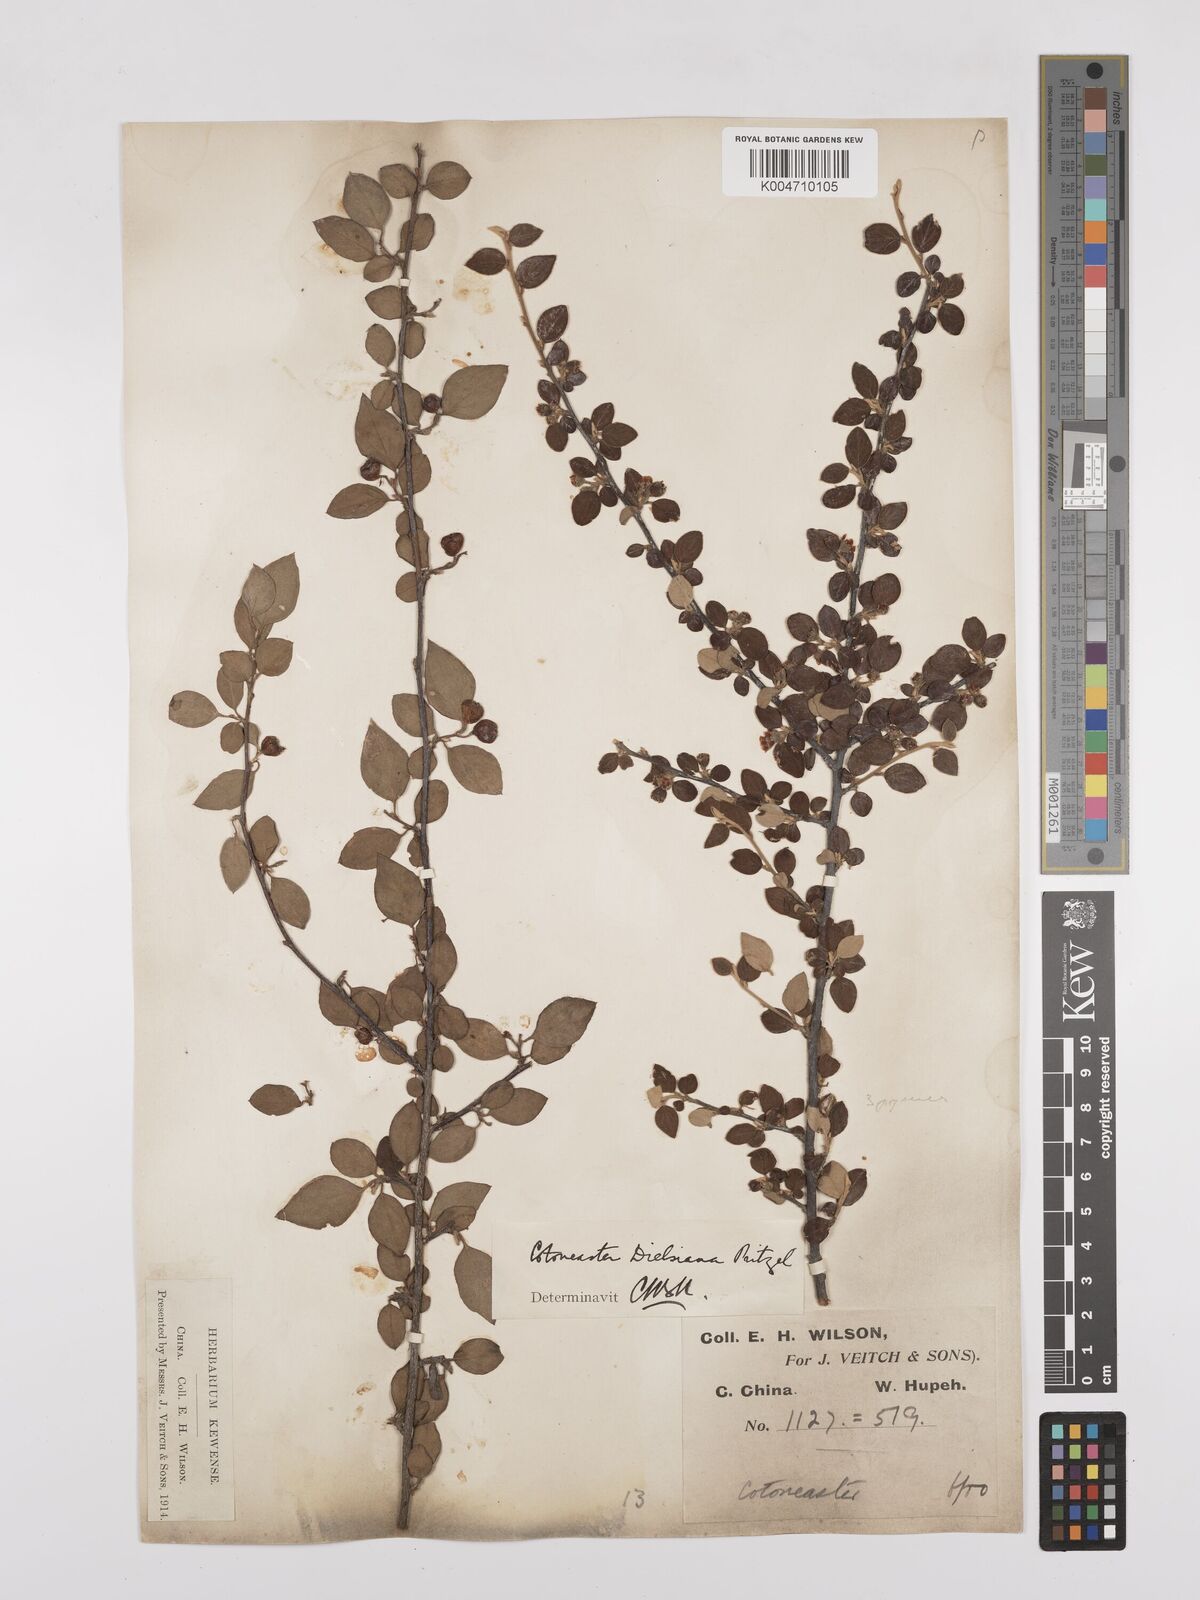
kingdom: Plantae
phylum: Tracheophyta
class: Magnoliopsida
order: Rosales
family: Rosaceae
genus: Cotoneaster
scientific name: Cotoneaster dielsianus
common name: Diels's cotoneaster
